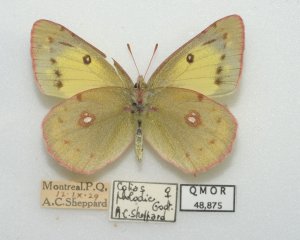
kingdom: Animalia
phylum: Arthropoda
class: Insecta
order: Lepidoptera
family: Pieridae
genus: Colias
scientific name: Colias philodice
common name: Clouded Sulphur
